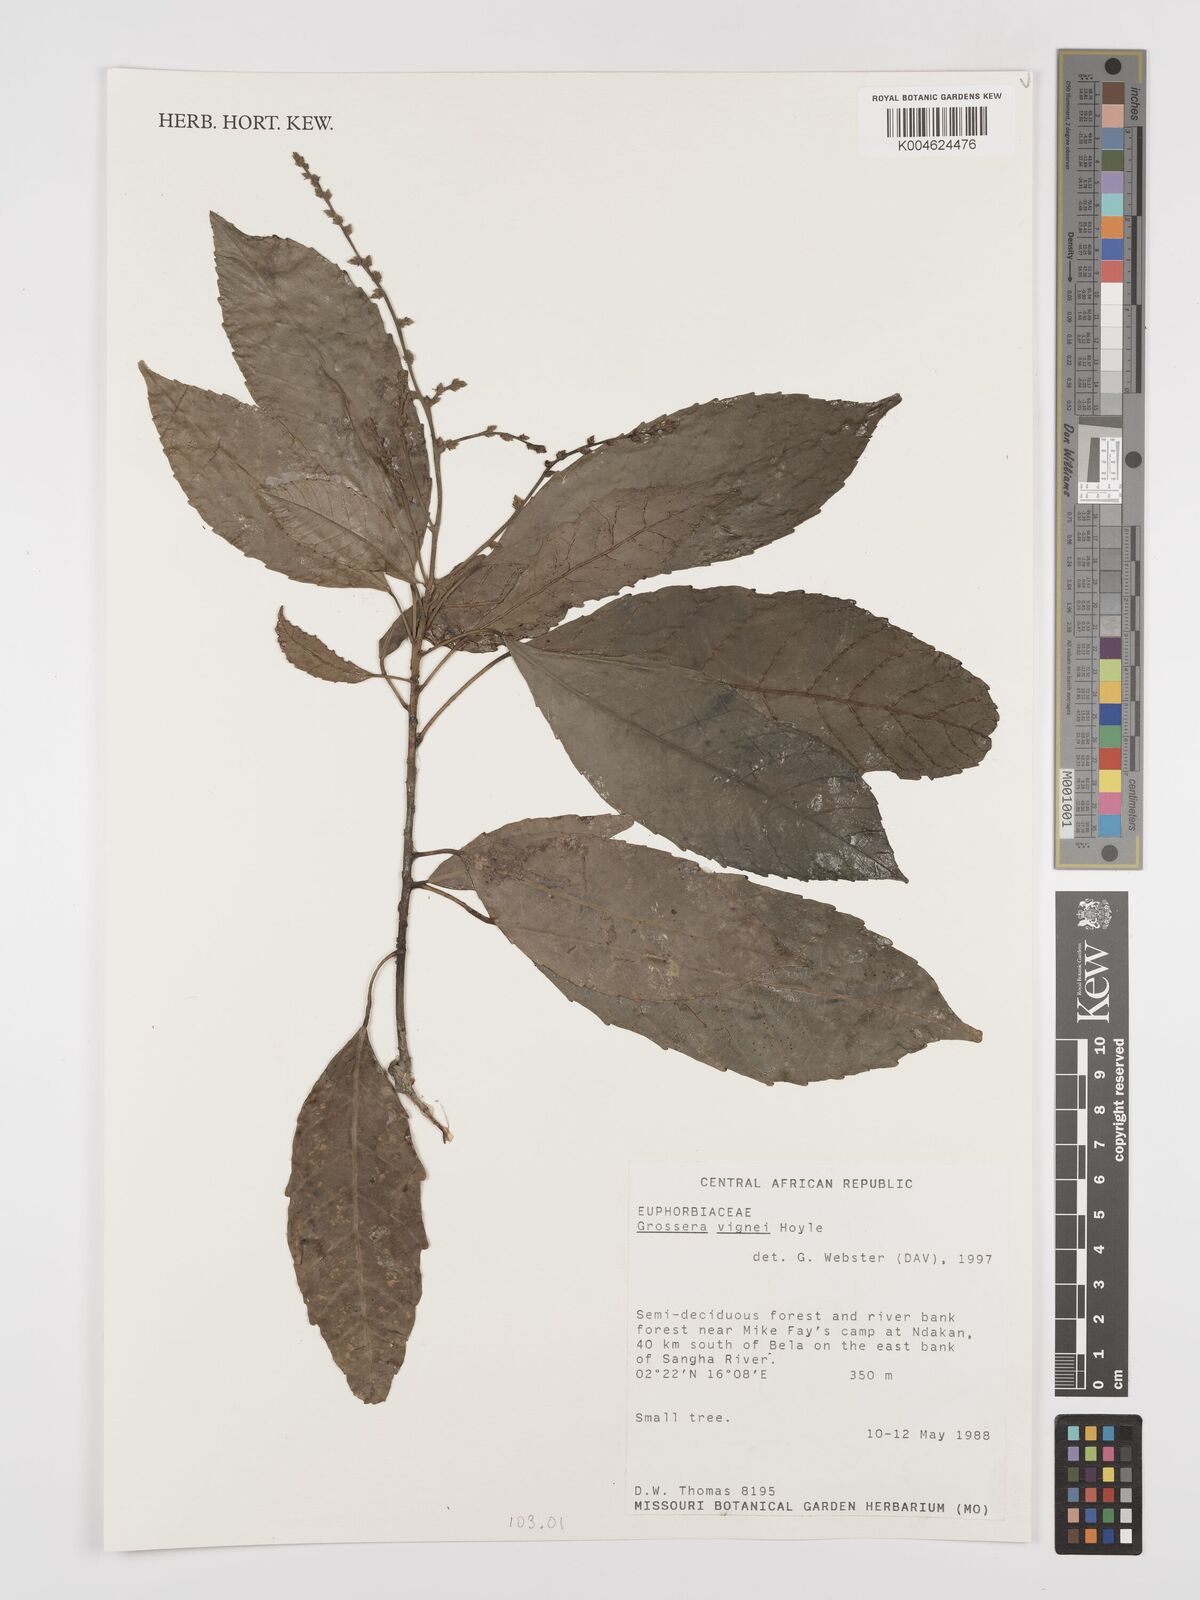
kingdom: Plantae
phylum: Tracheophyta
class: Magnoliopsida
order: Malpighiales
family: Euphorbiaceae
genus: Grossera
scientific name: Grossera vignei
